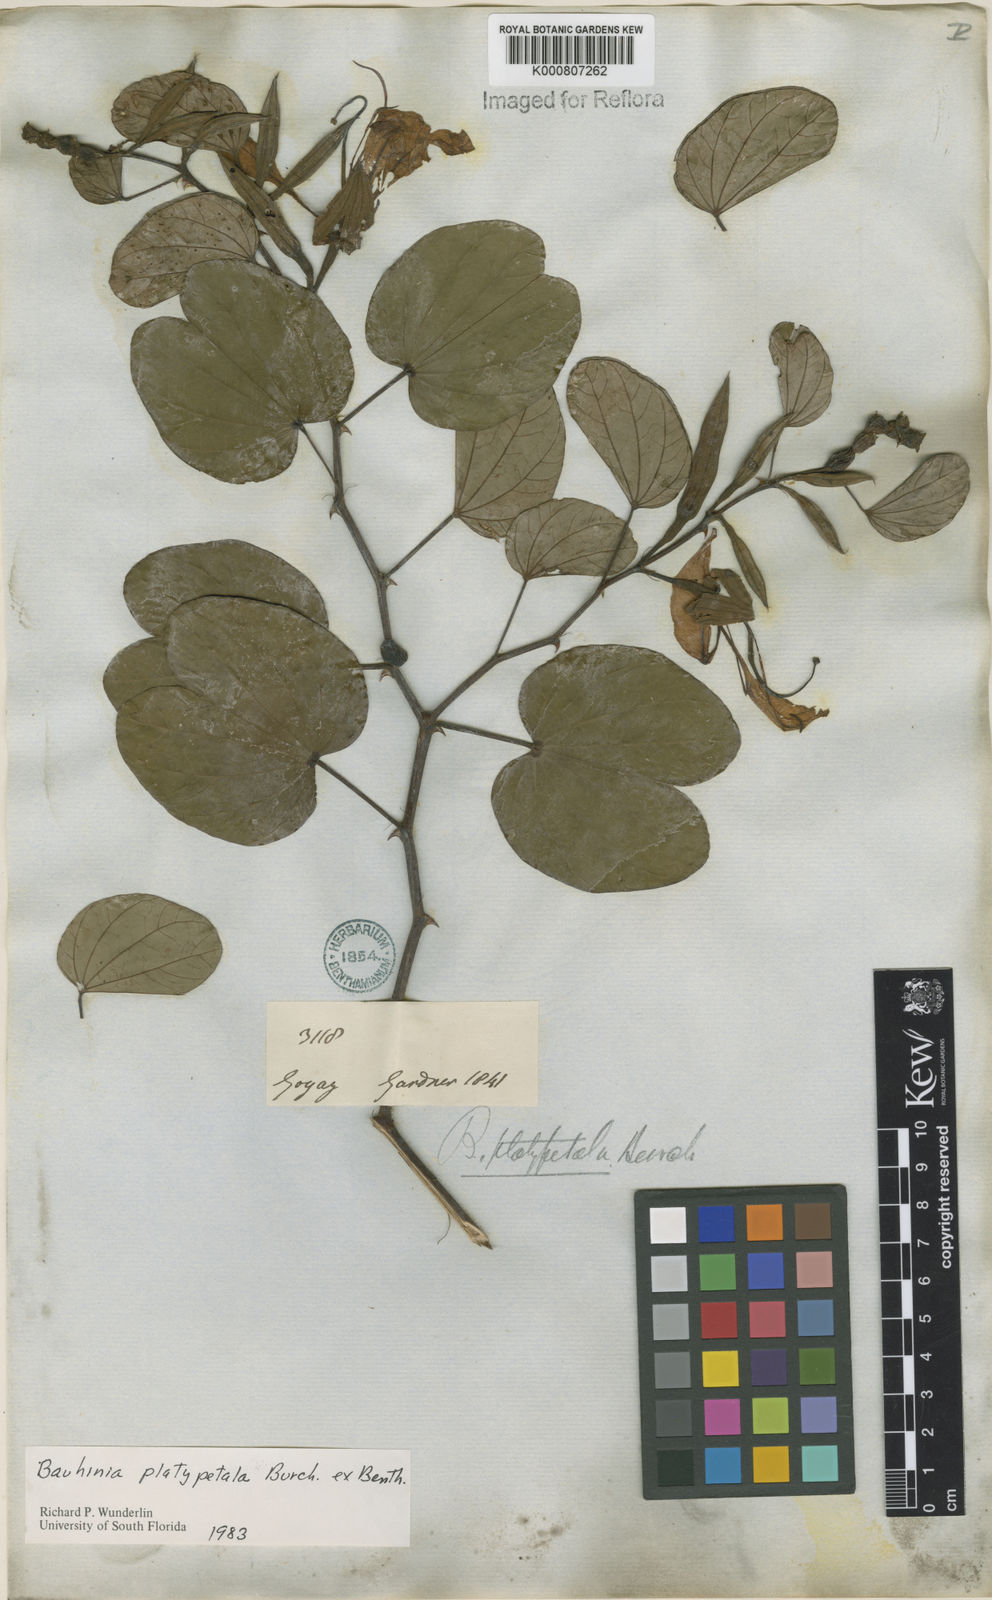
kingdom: Plantae
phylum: Tracheophyta
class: Magnoliopsida
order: Fabales
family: Fabaceae
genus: Bauhinia
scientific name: Bauhinia platypetala
